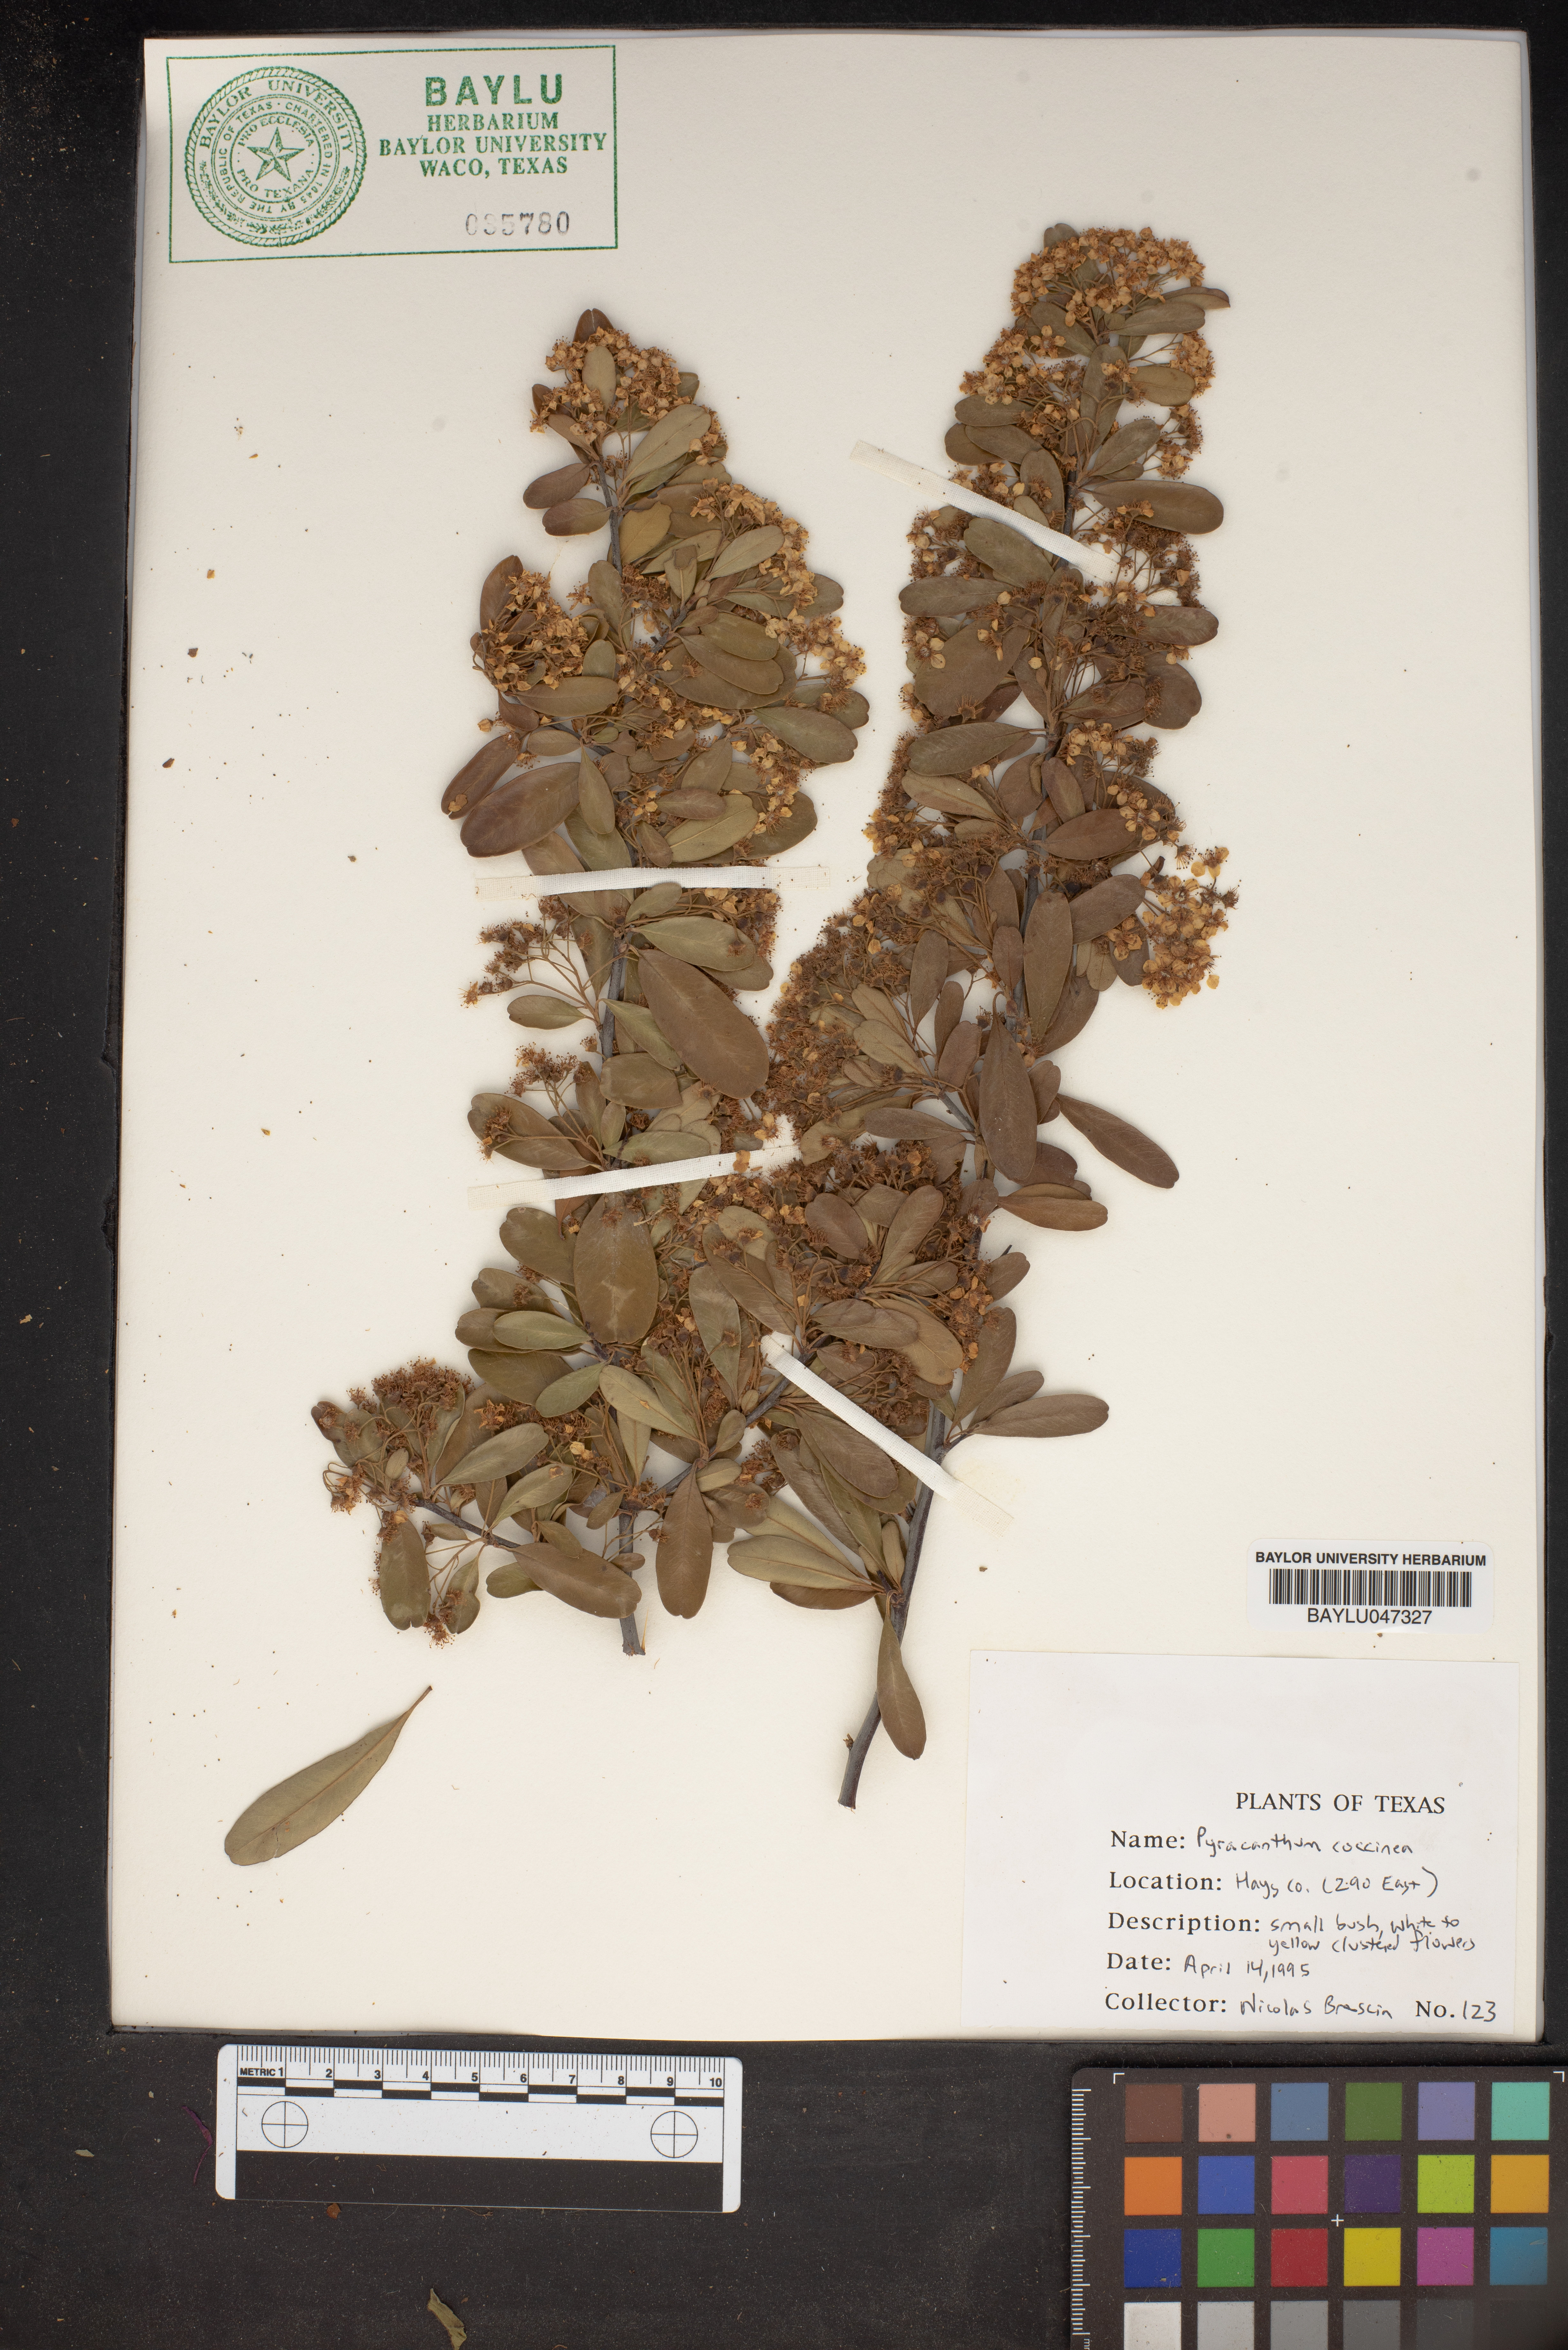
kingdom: Plantae
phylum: Tracheophyta
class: Magnoliopsida
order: Rosales
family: Rosaceae
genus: Pyracantha
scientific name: Pyracantha coccinea
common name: Firethorn
